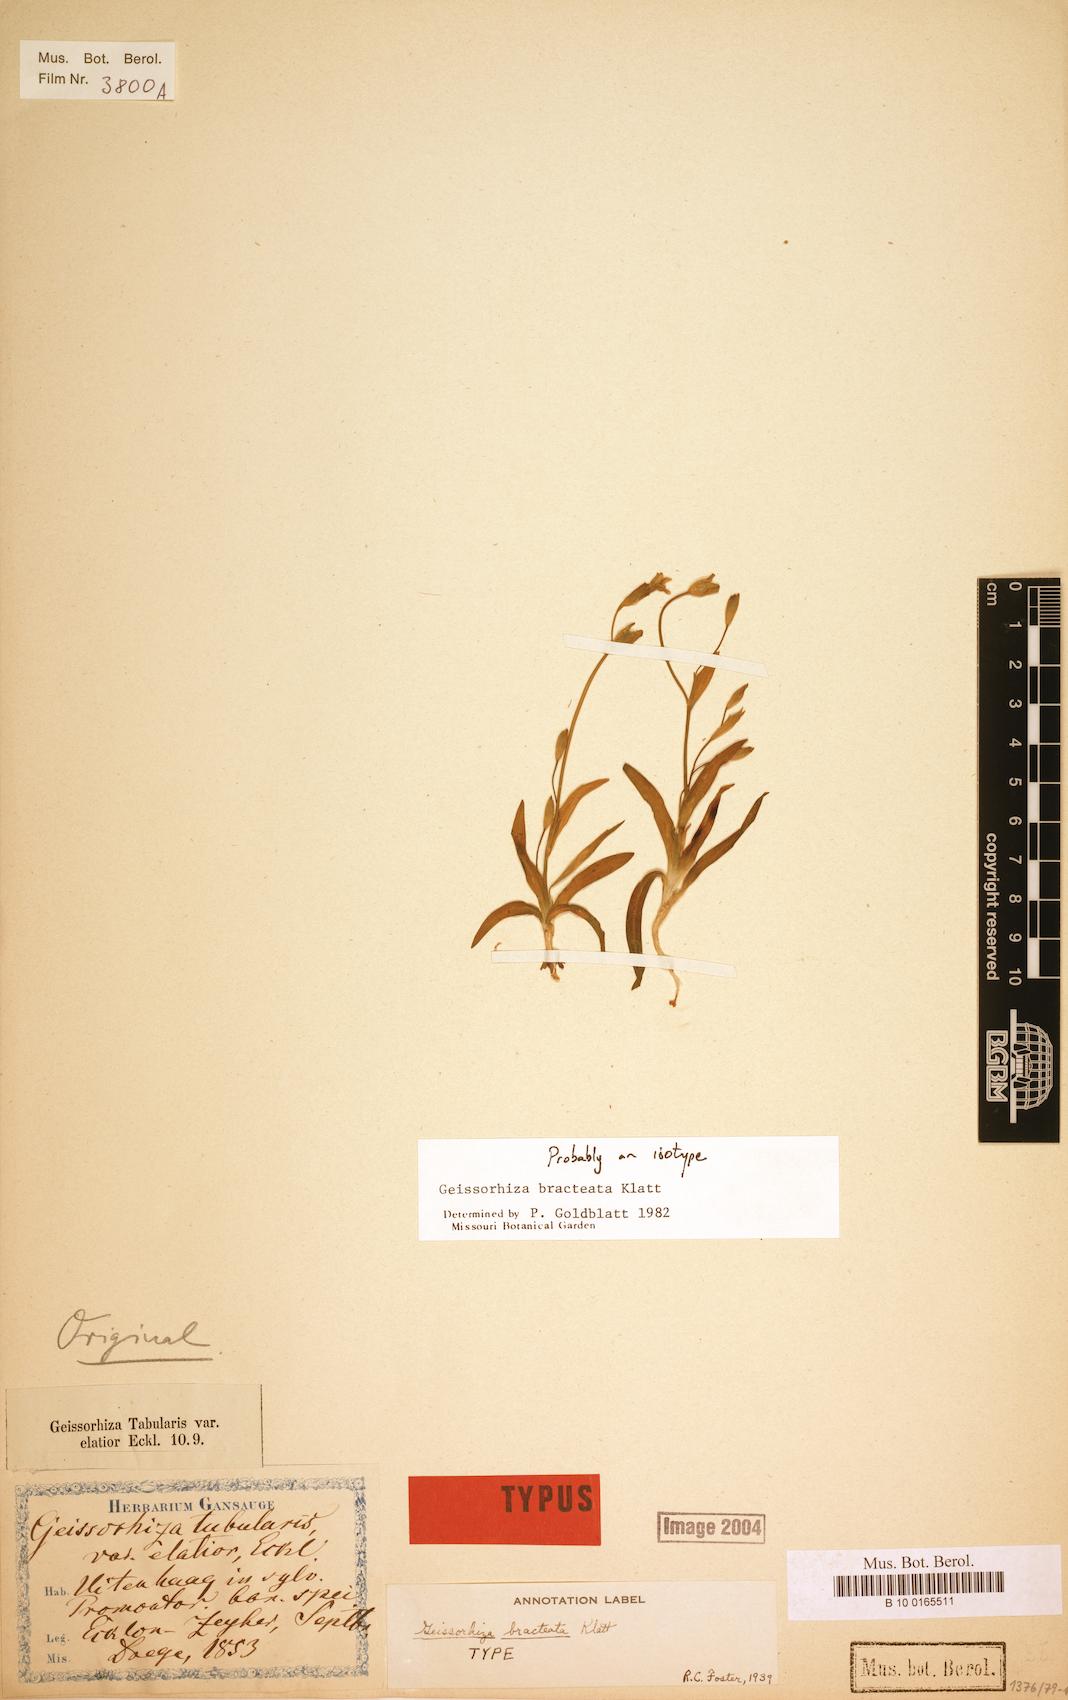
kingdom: Plantae
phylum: Tracheophyta
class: Liliopsida
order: Asparagales
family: Iridaceae
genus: Geissorhiza
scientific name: Geissorhiza bracteata
